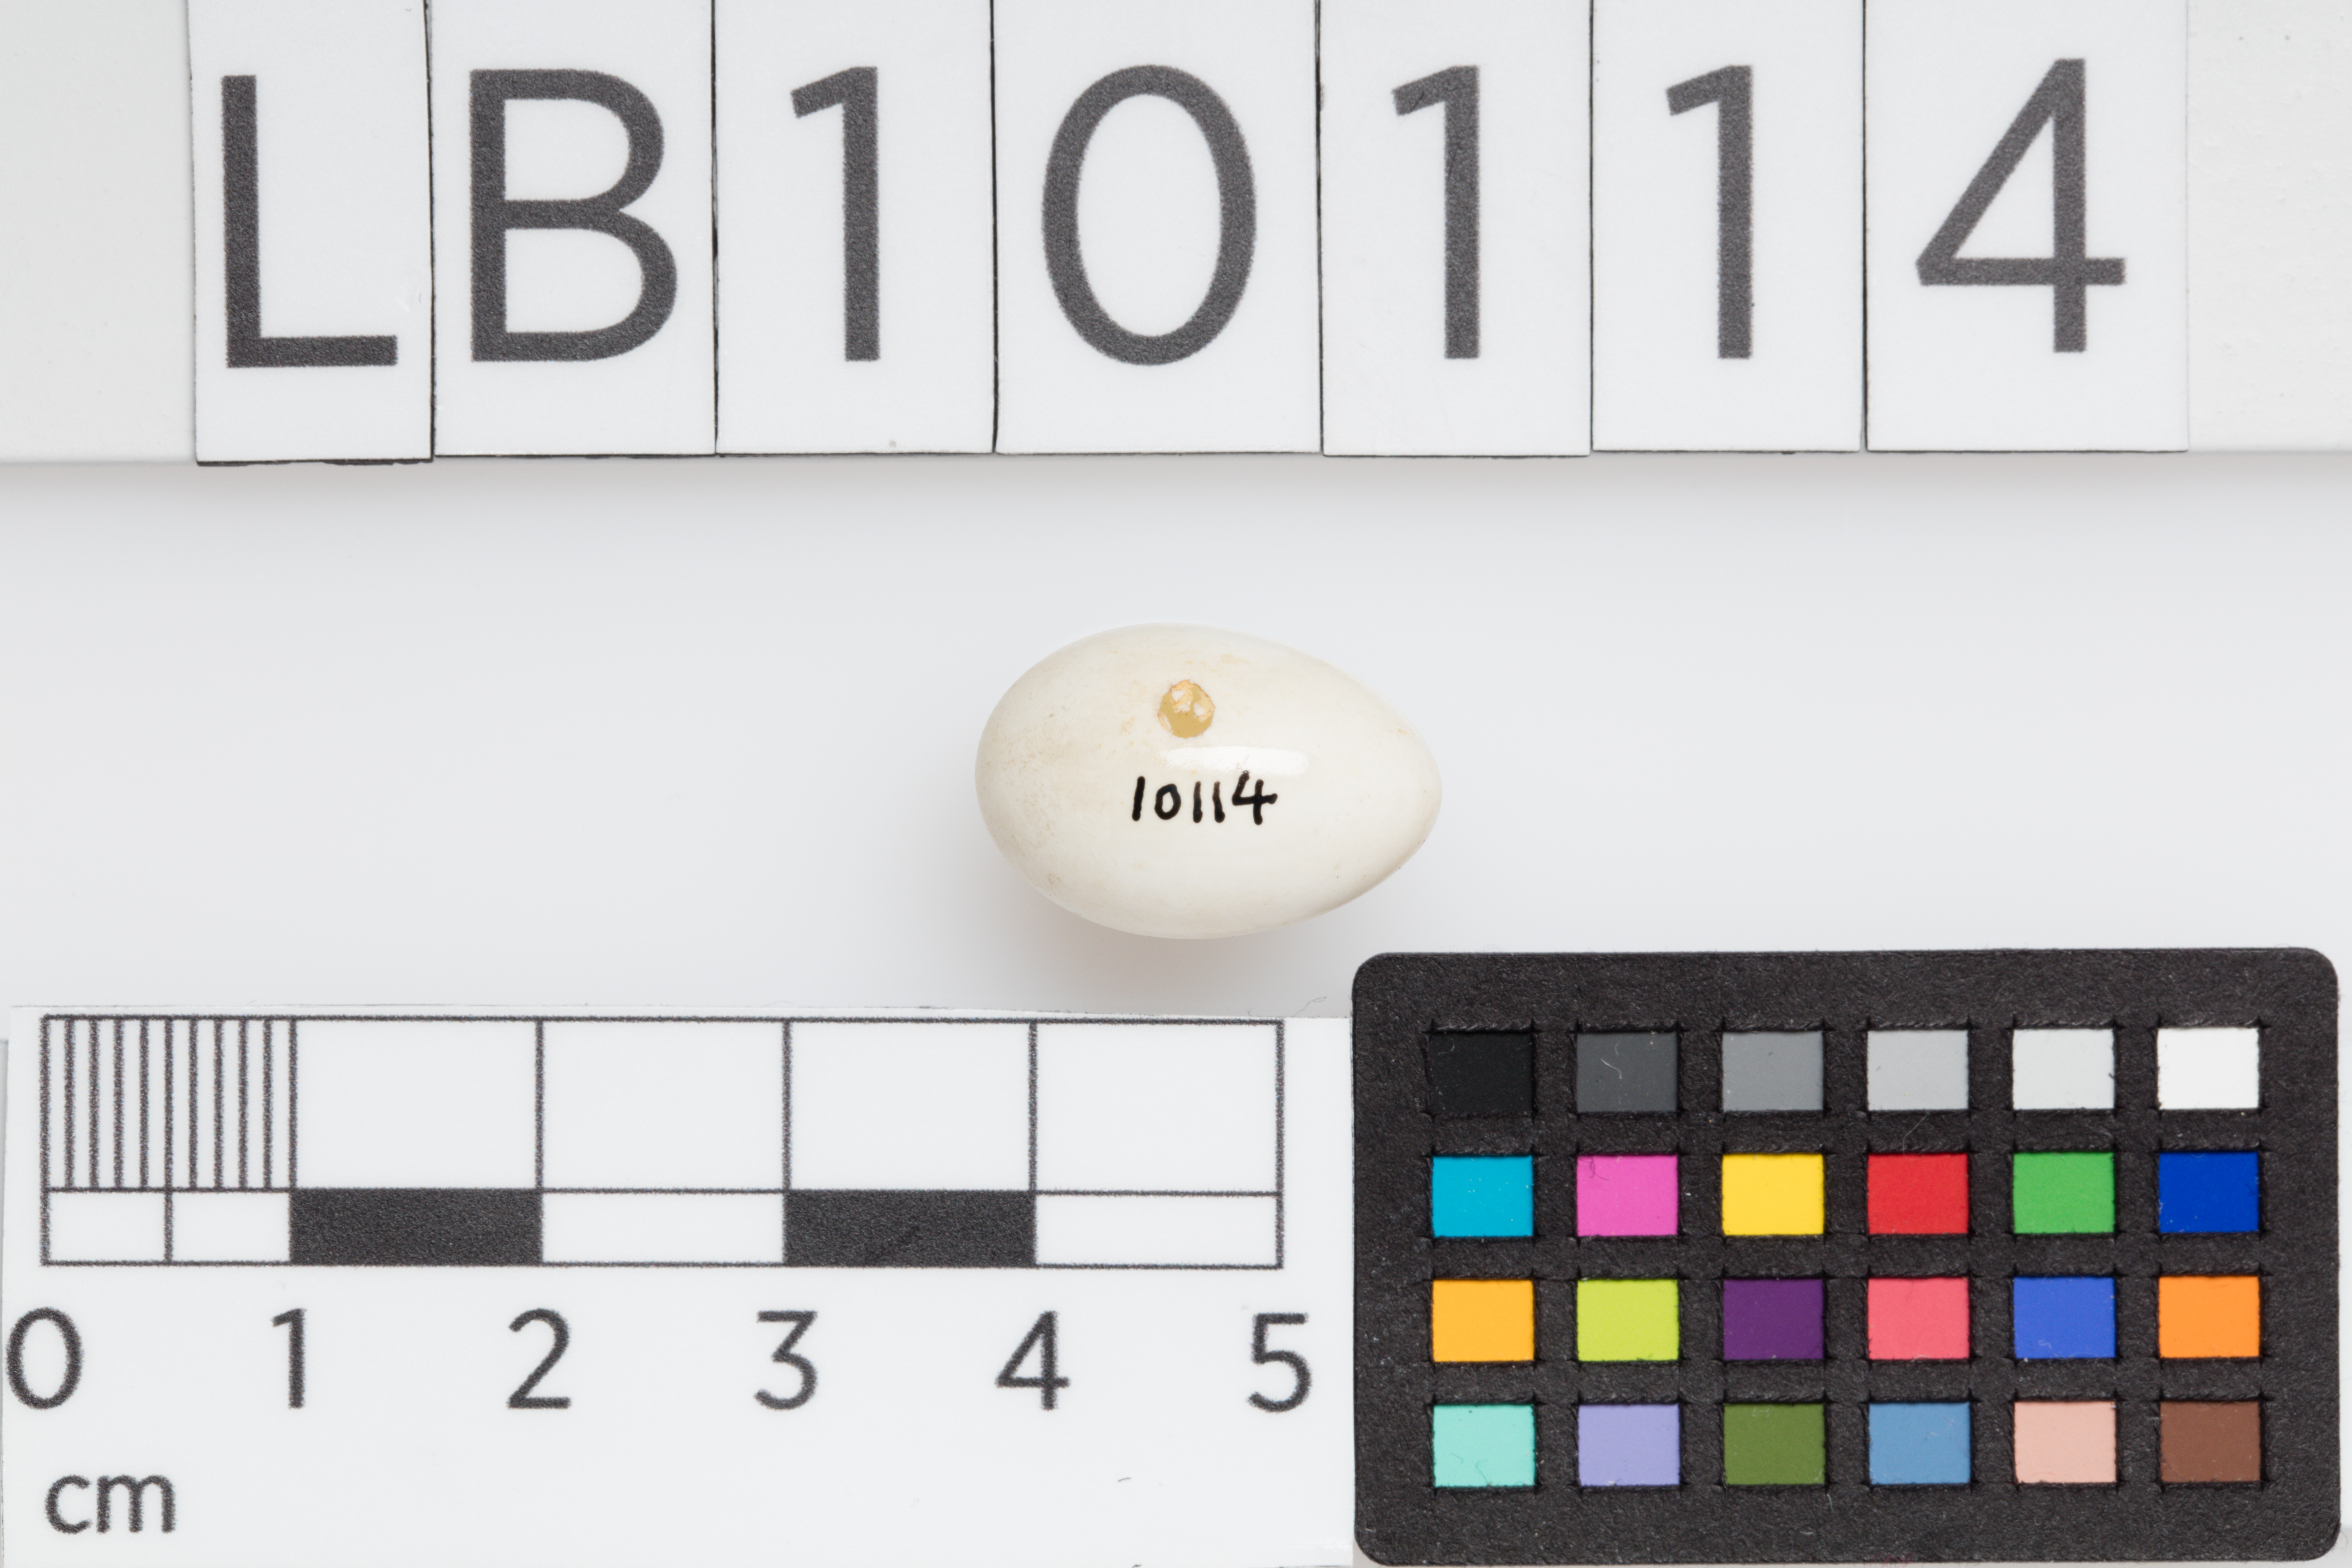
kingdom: Animalia
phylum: Chordata
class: Aves
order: Passeriformes
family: Hirundinidae
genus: Riparia
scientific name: Riparia riparia
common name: Sand martin
